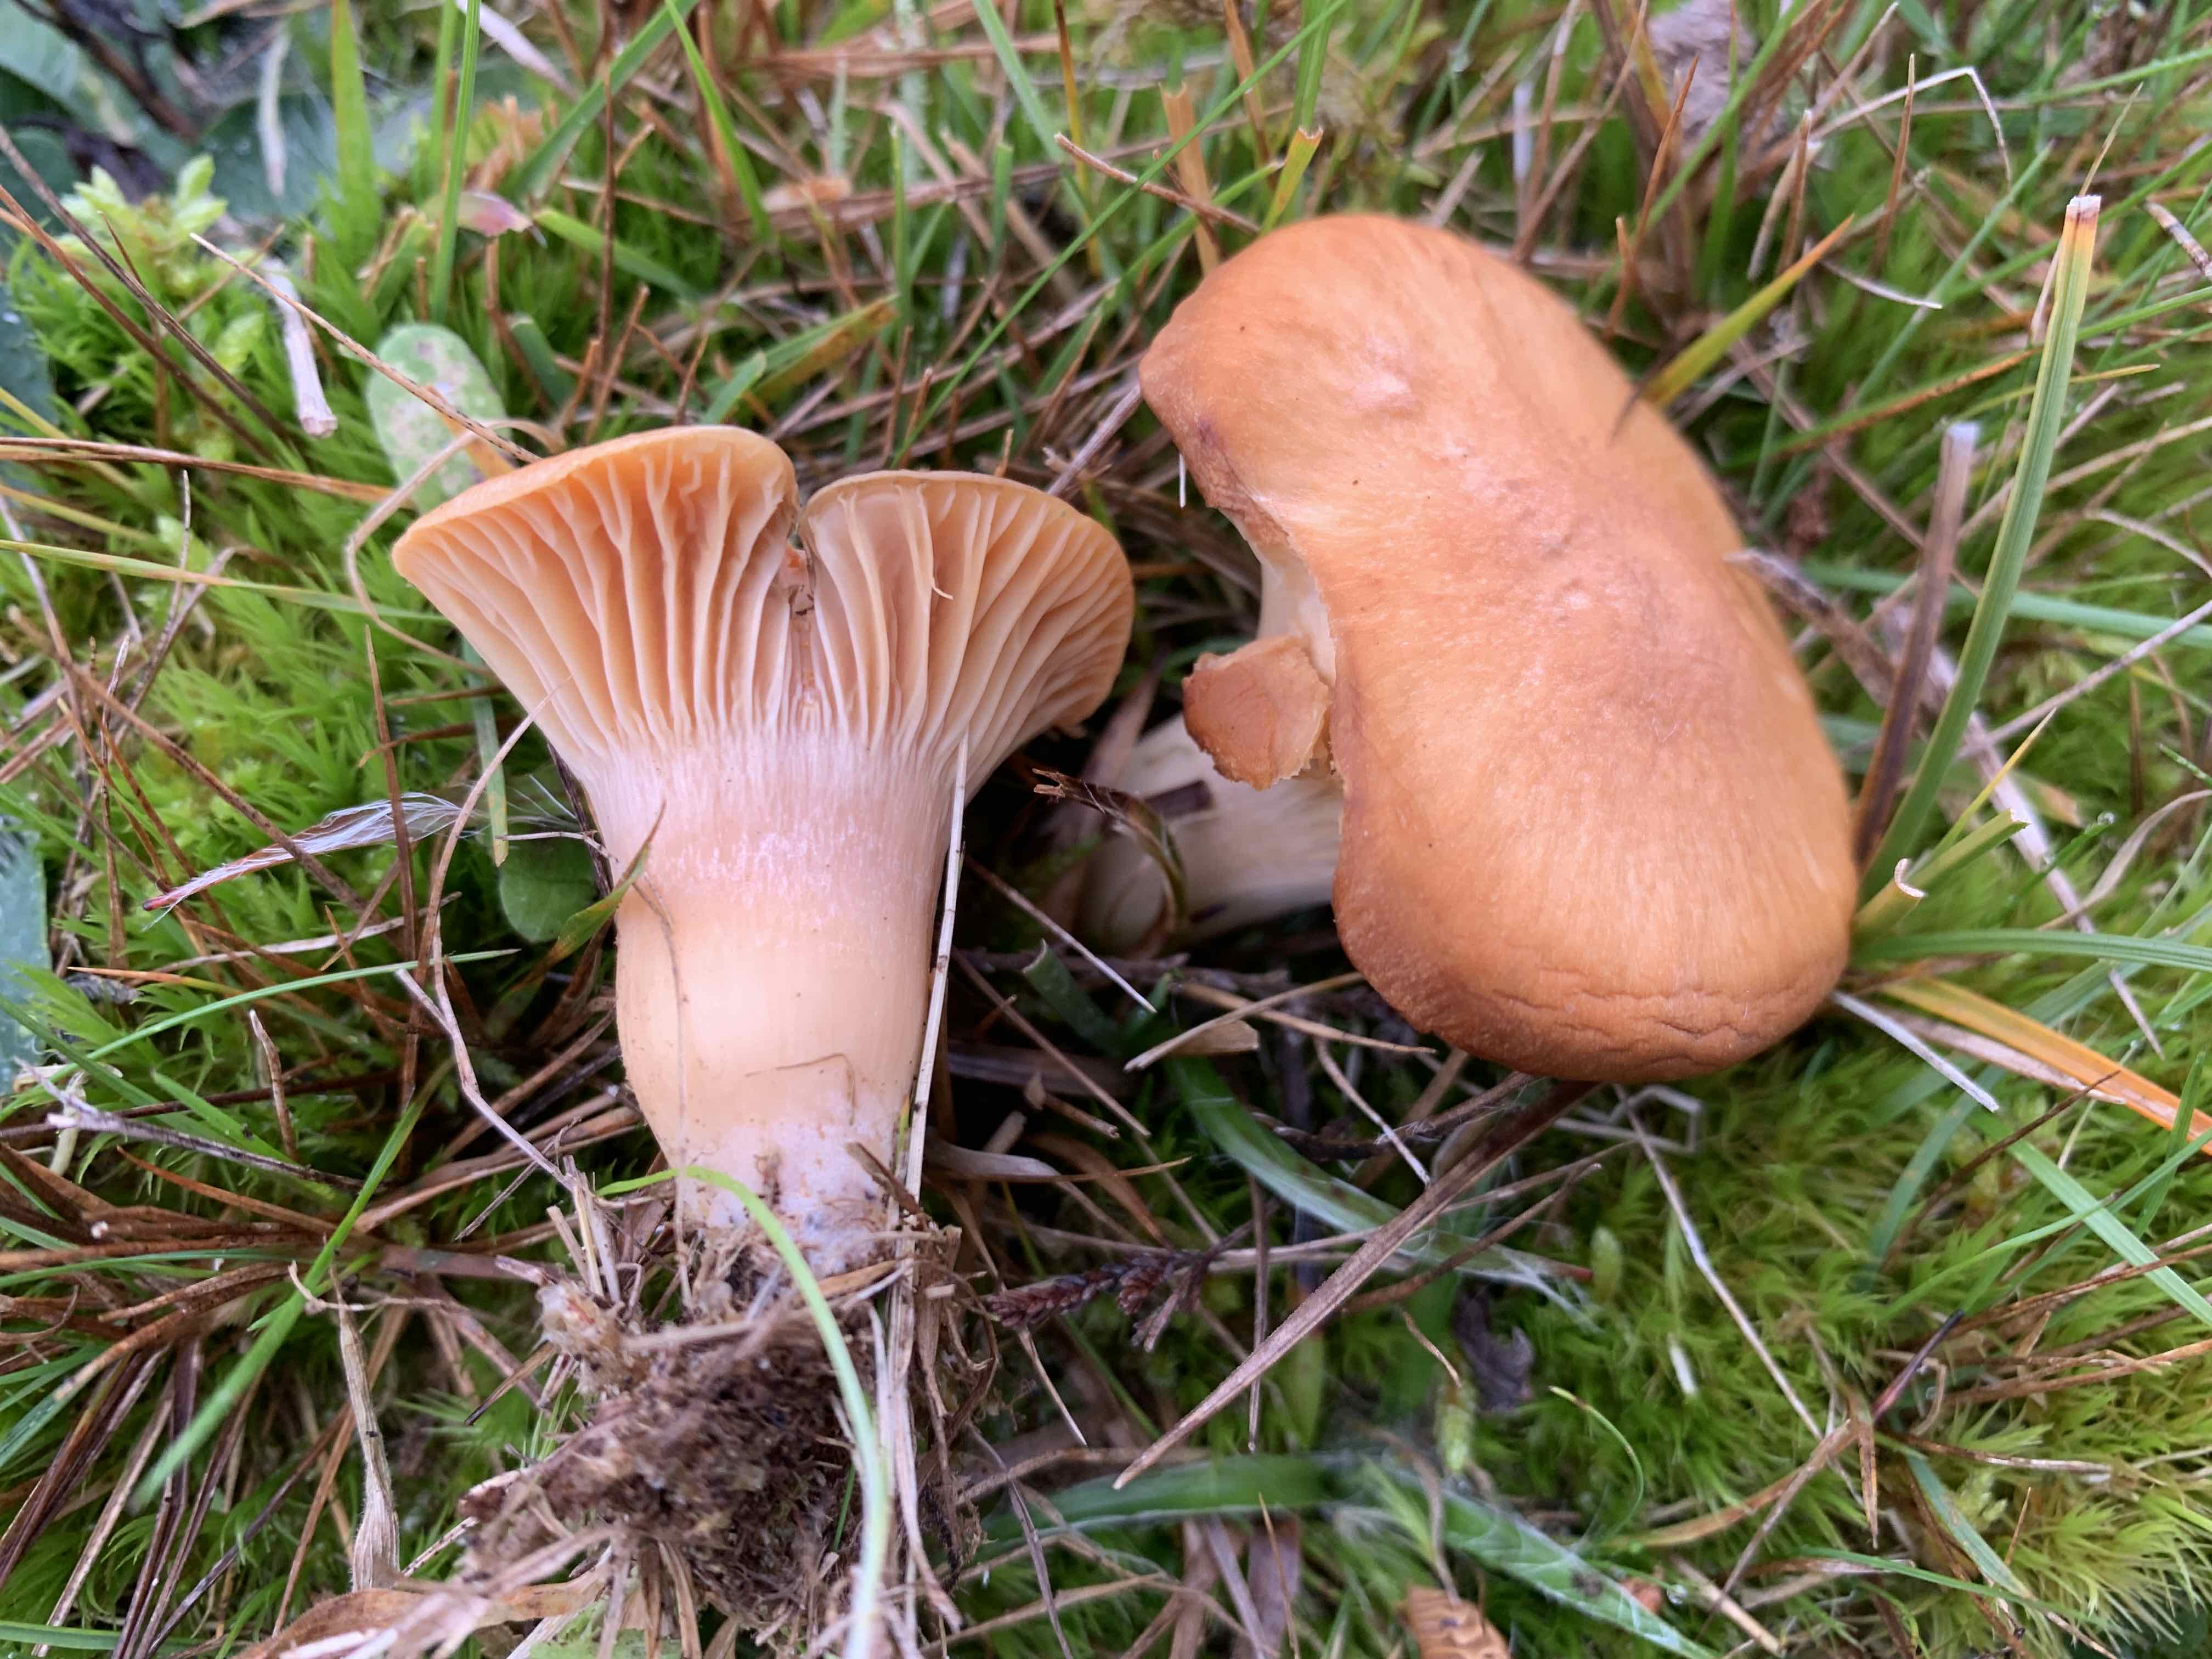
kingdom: Fungi
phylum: Basidiomycota
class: Agaricomycetes
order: Agaricales
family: Hygrophoraceae
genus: Cuphophyllus
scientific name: Cuphophyllus pratensis
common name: eng-vokshat
